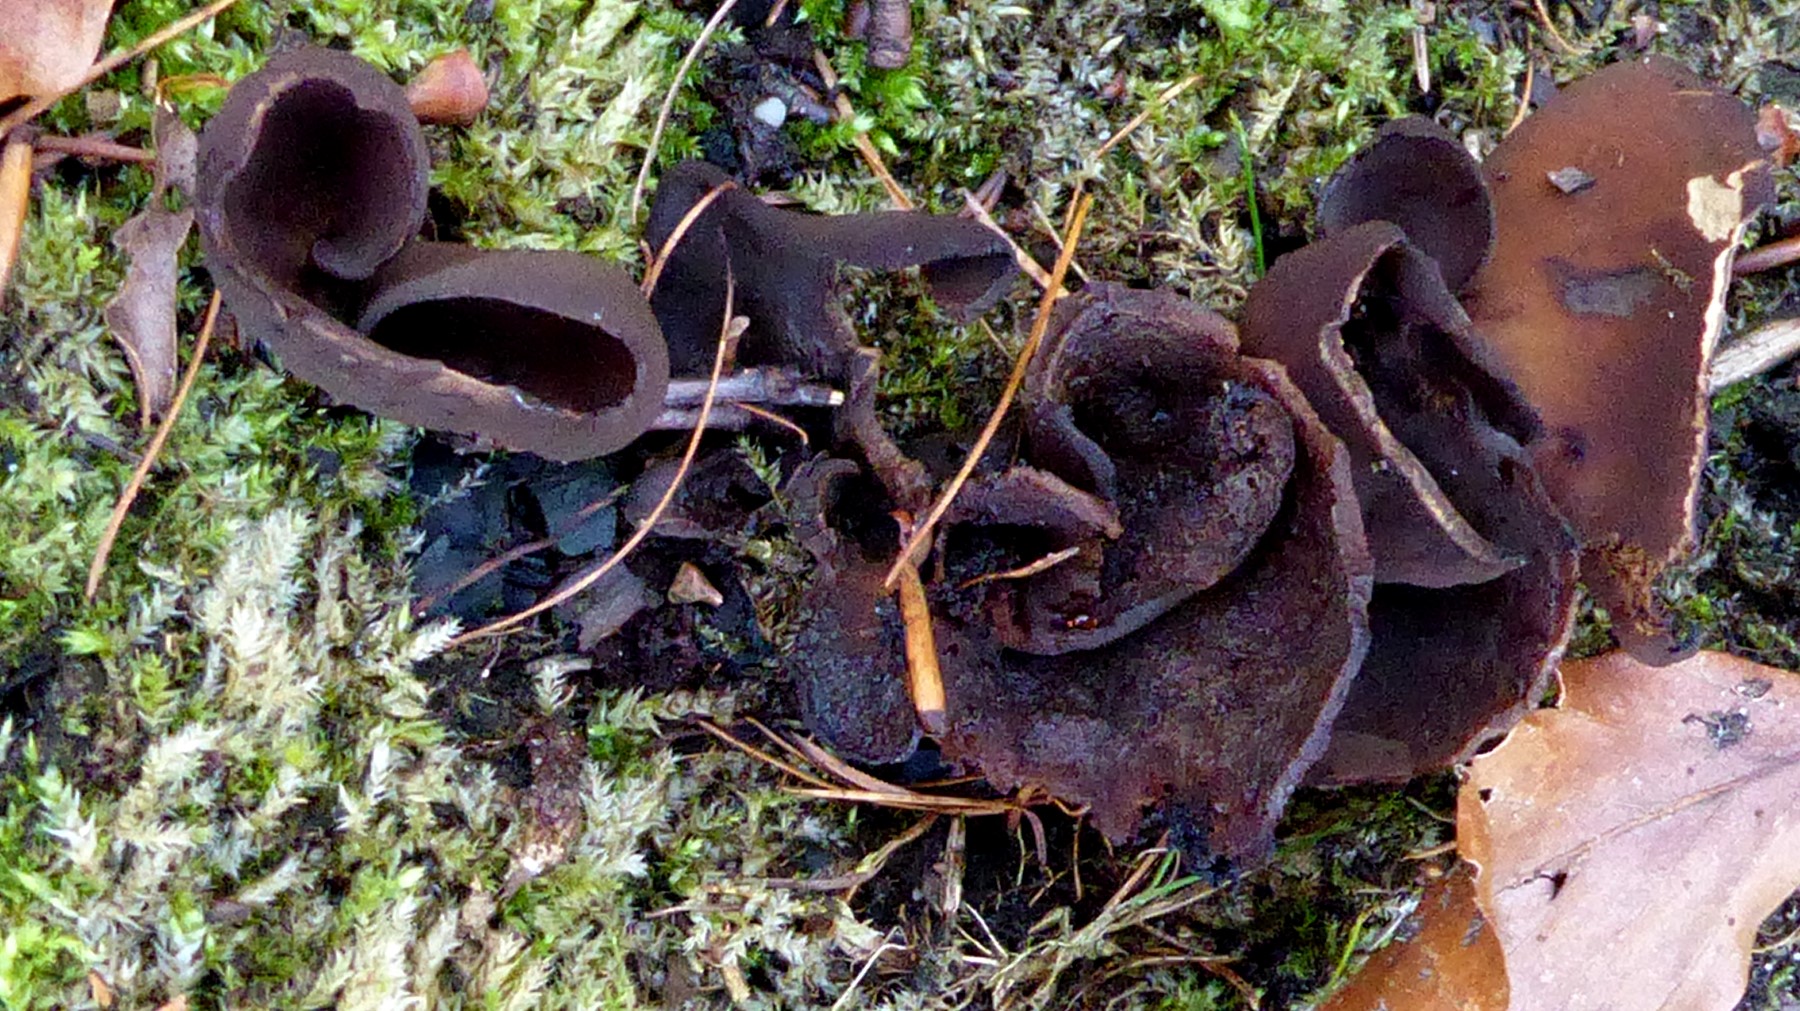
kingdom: Fungi
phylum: Ascomycota
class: Pezizomycetes
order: Pezizales
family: Otideaceae
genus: Otidea
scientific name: Otidea bufonia
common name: brun ørebæger
